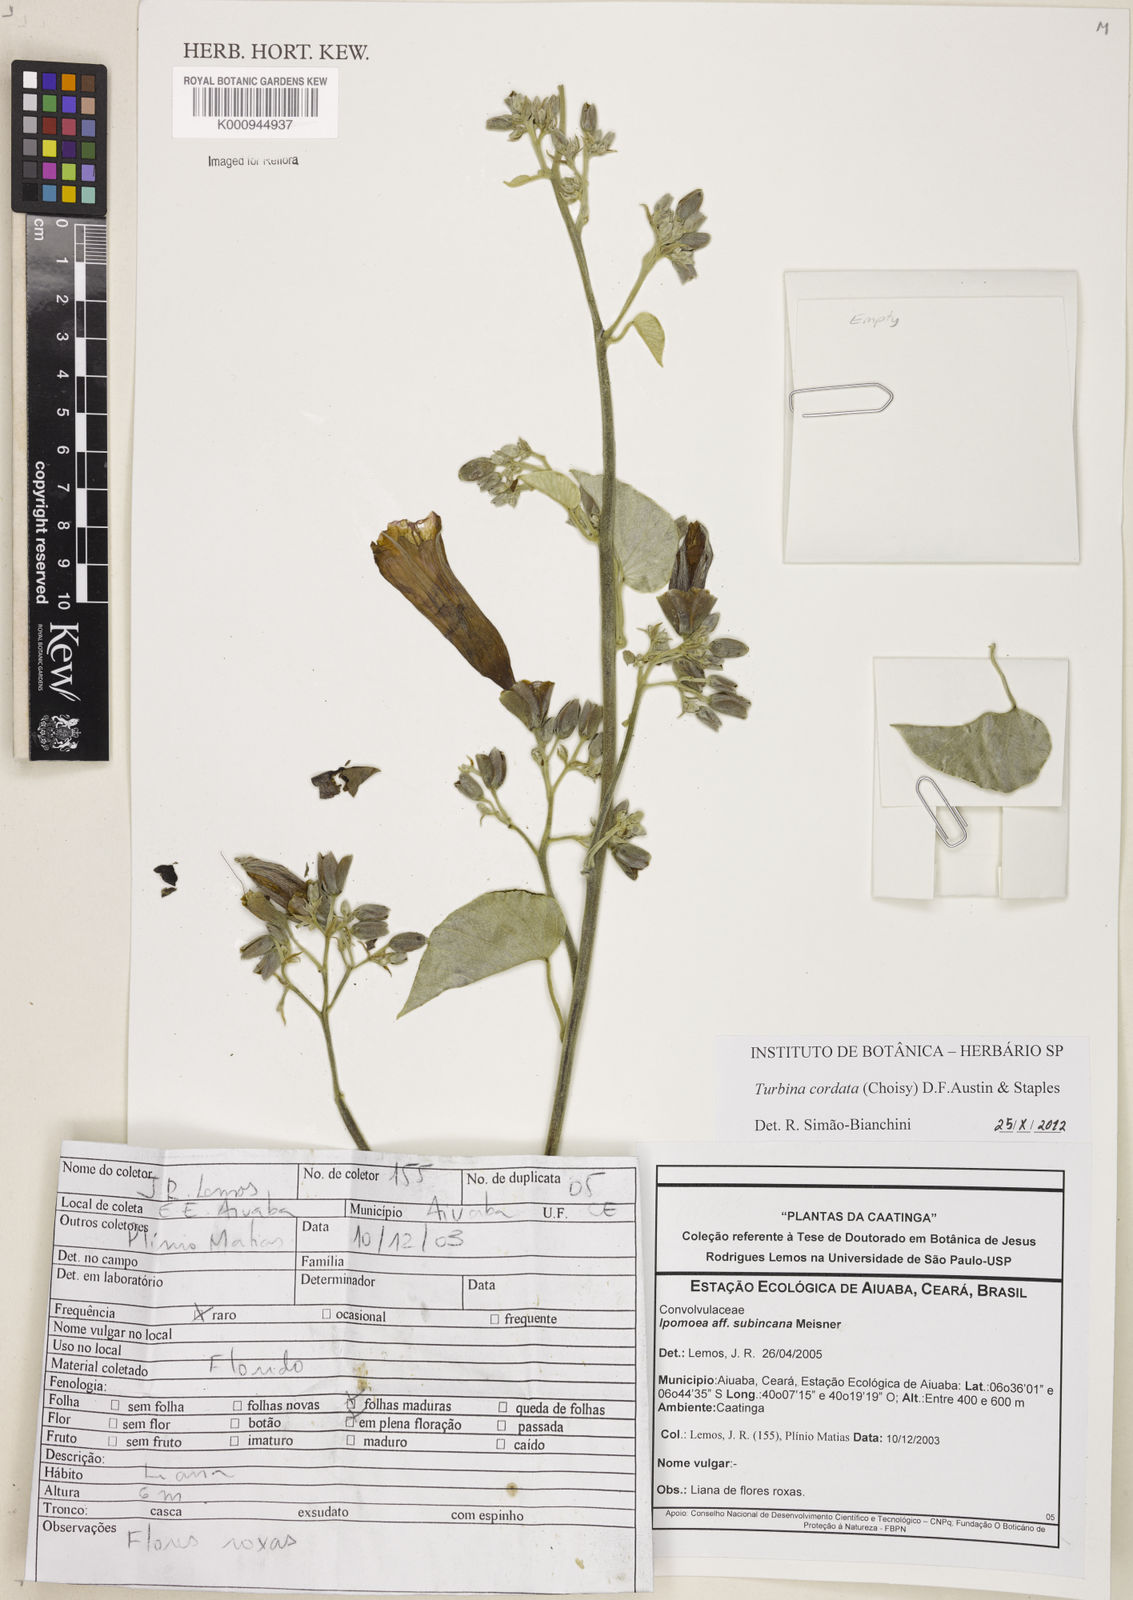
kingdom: Plantae
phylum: Tracheophyta
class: Magnoliopsida
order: Solanales
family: Convolvulaceae
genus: Ipomoea
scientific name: Ipomoea sericosepala
